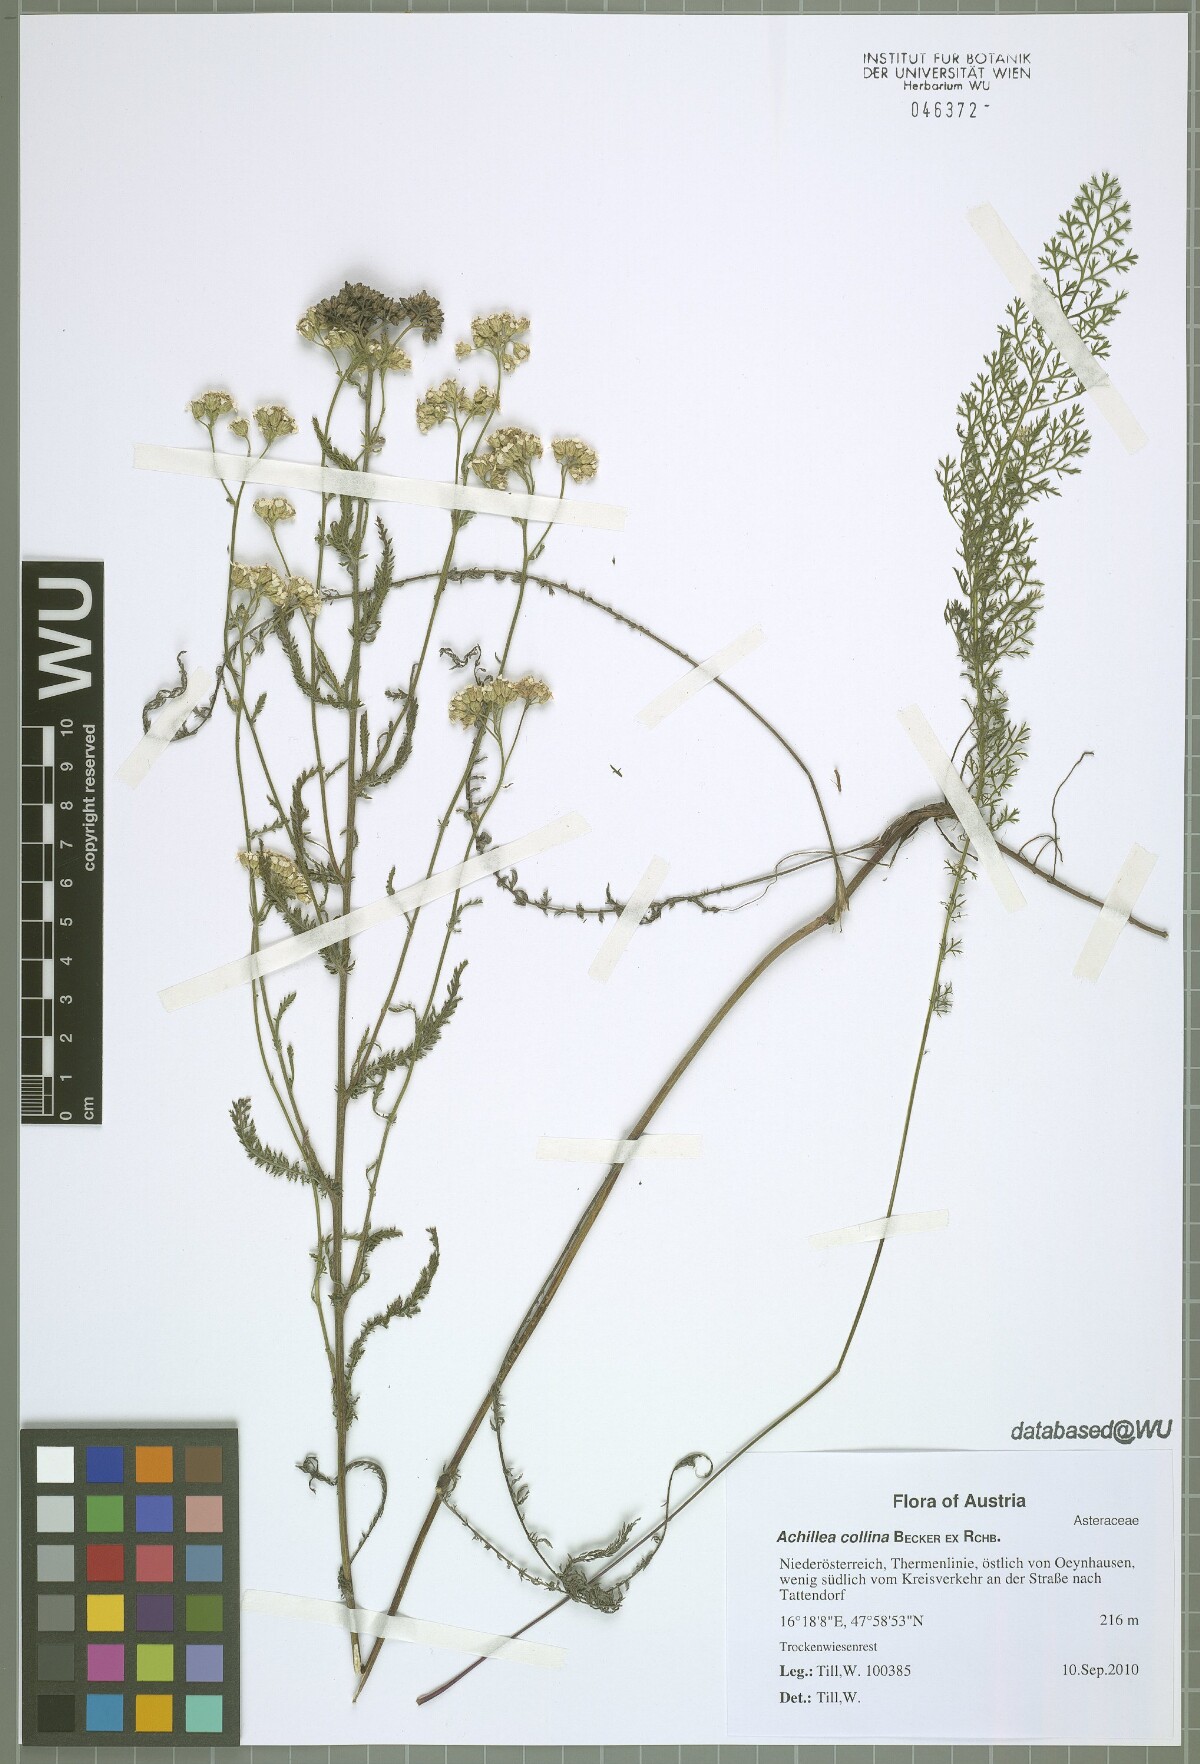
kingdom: Plantae
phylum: Tracheophyta
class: Magnoliopsida
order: Asterales
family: Asteraceae
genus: Achillea
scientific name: Achillea collina
